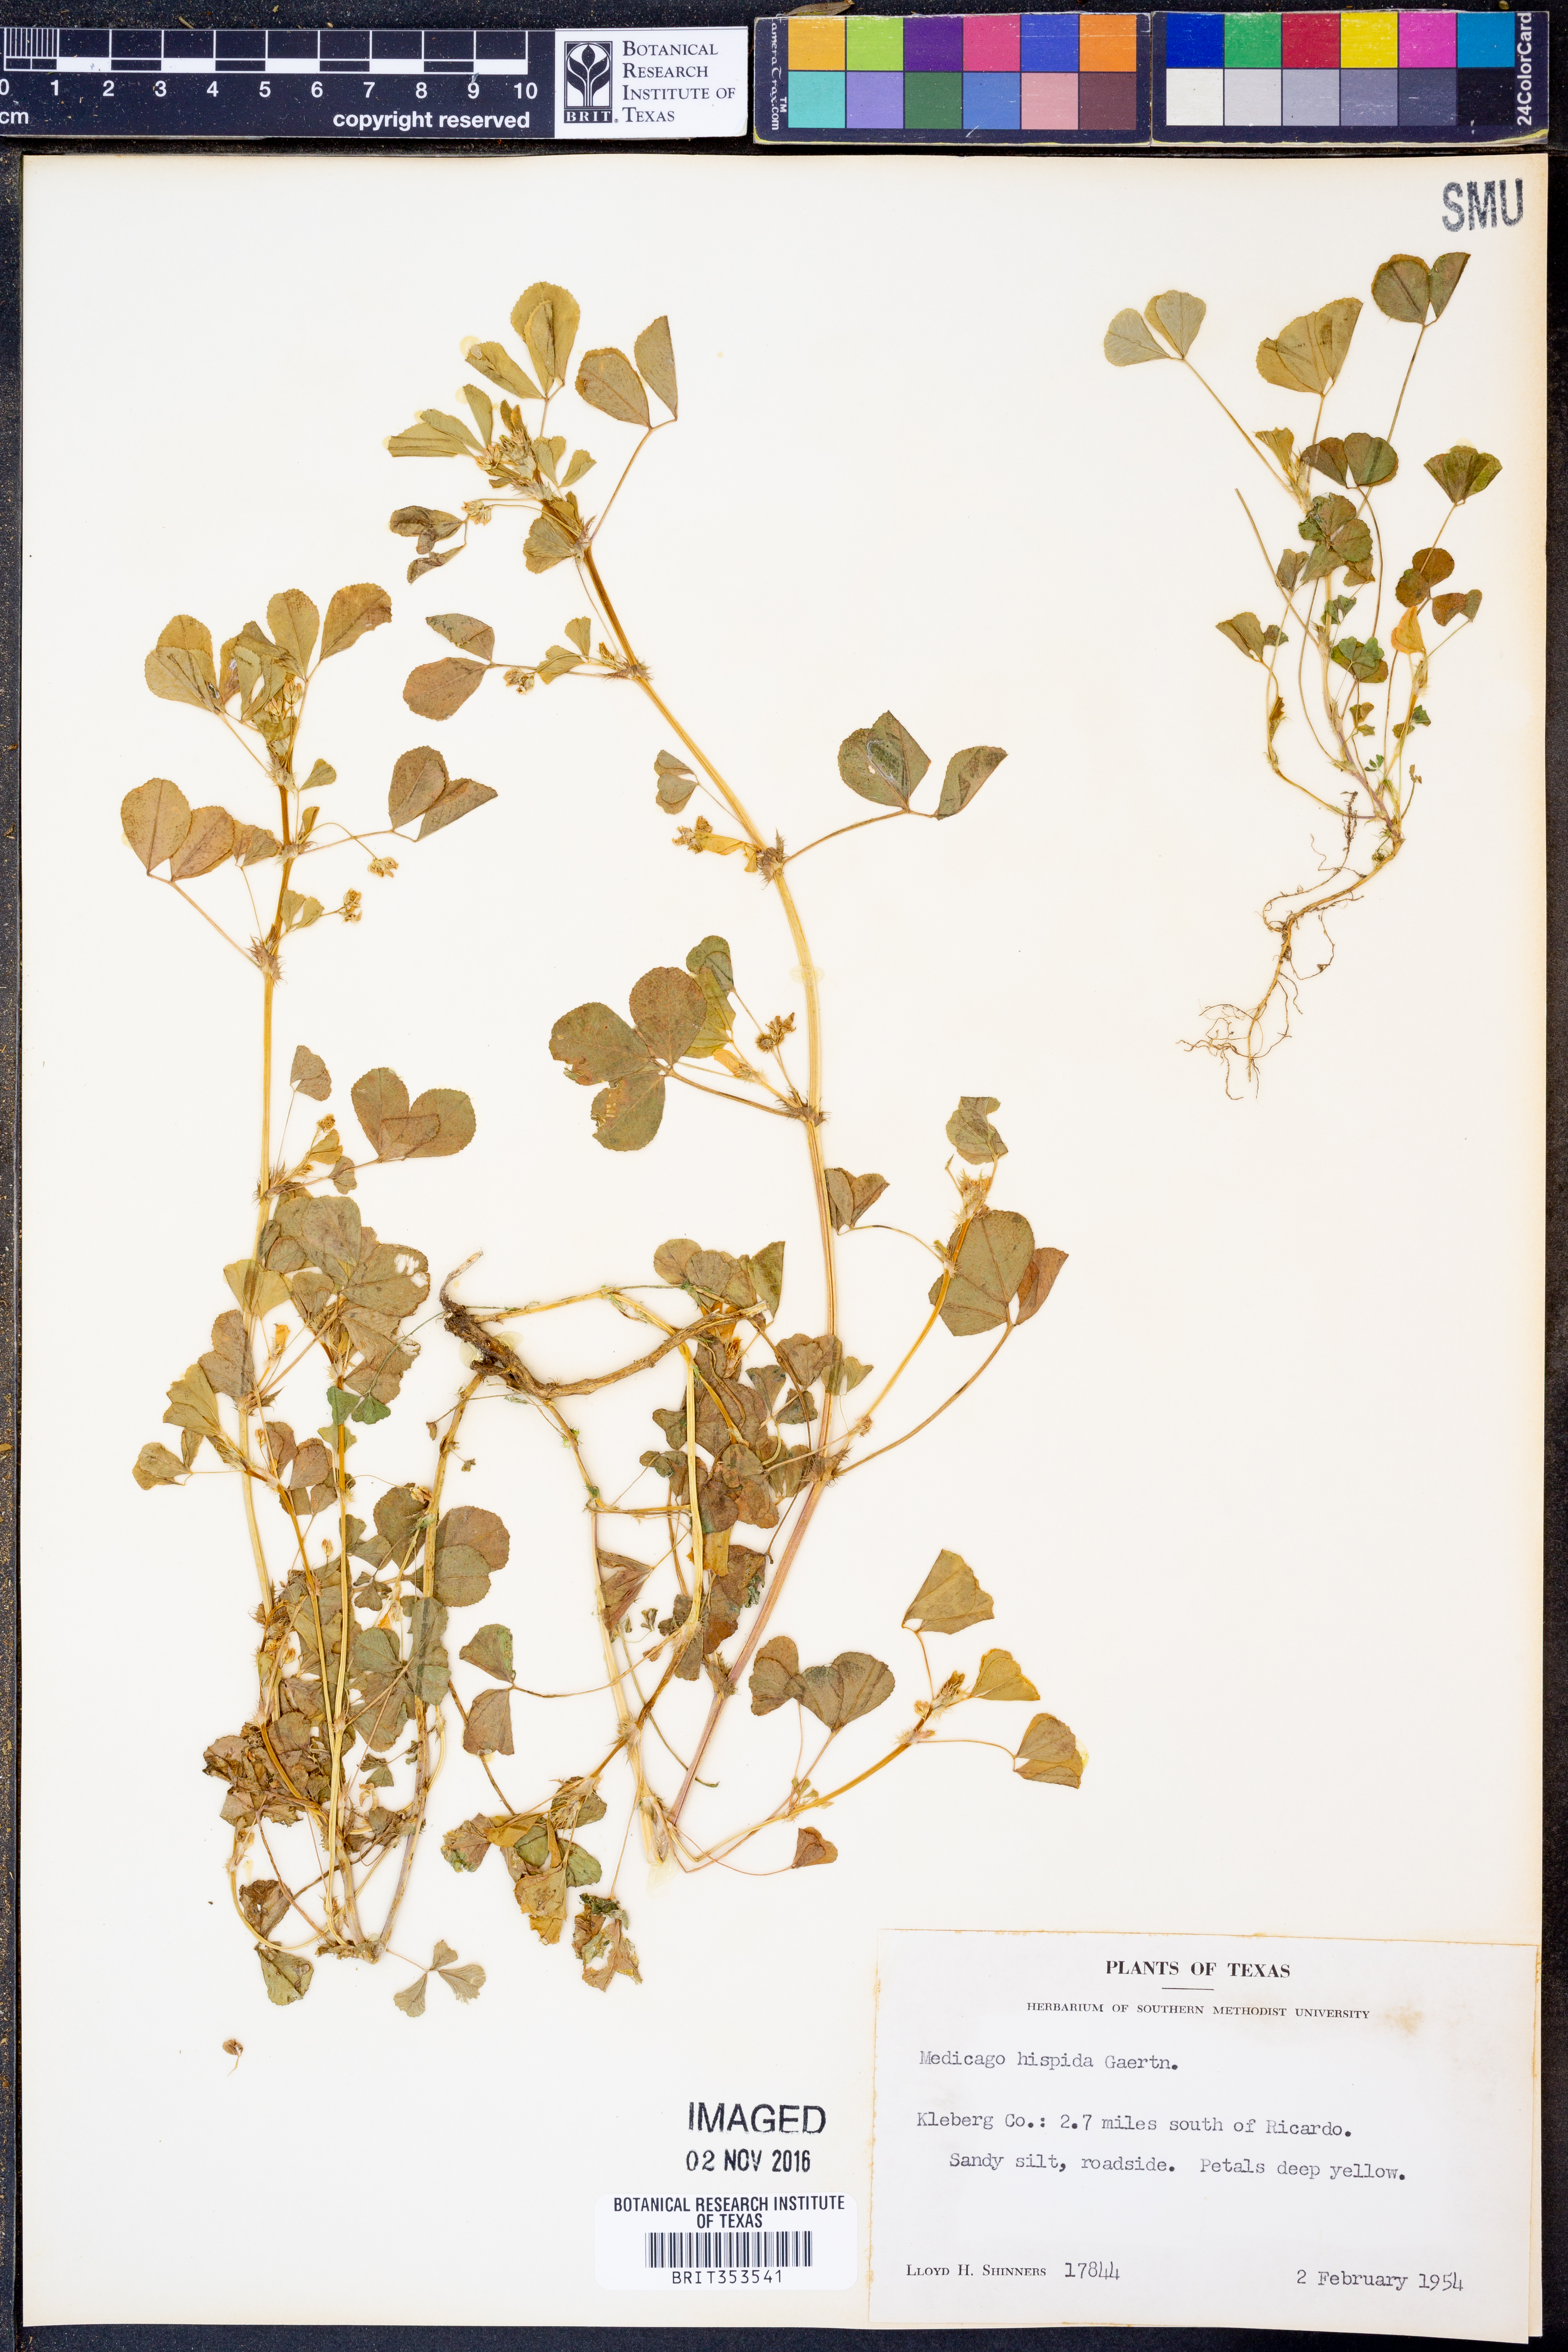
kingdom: Plantae
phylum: Tracheophyta
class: Magnoliopsida
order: Fabales
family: Fabaceae
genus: Medicago
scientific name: Medicago polymorpha
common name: Burclover
